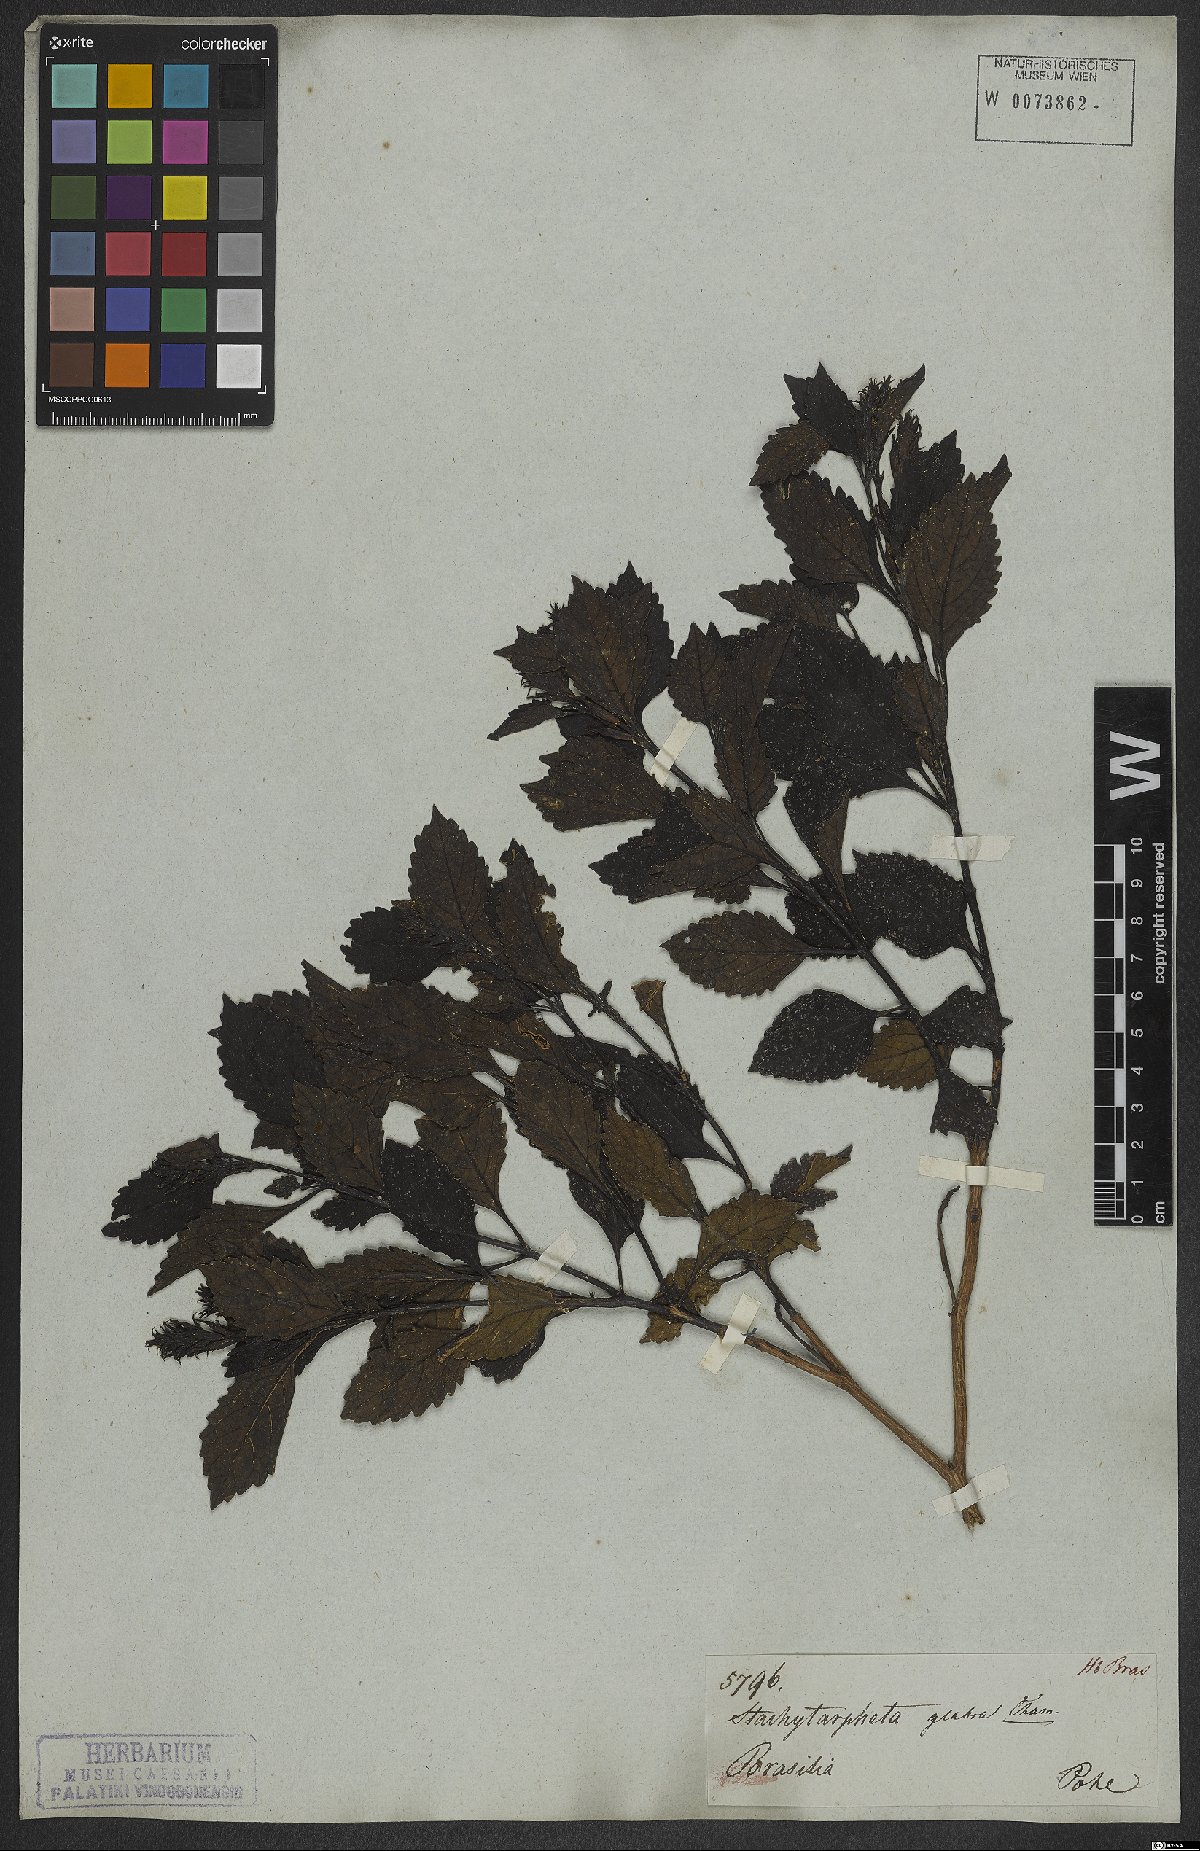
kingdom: Plantae
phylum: Tracheophyta
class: Magnoliopsida
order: Lamiales
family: Verbenaceae
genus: Stachytarpheta
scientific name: Stachytarpheta glabra
